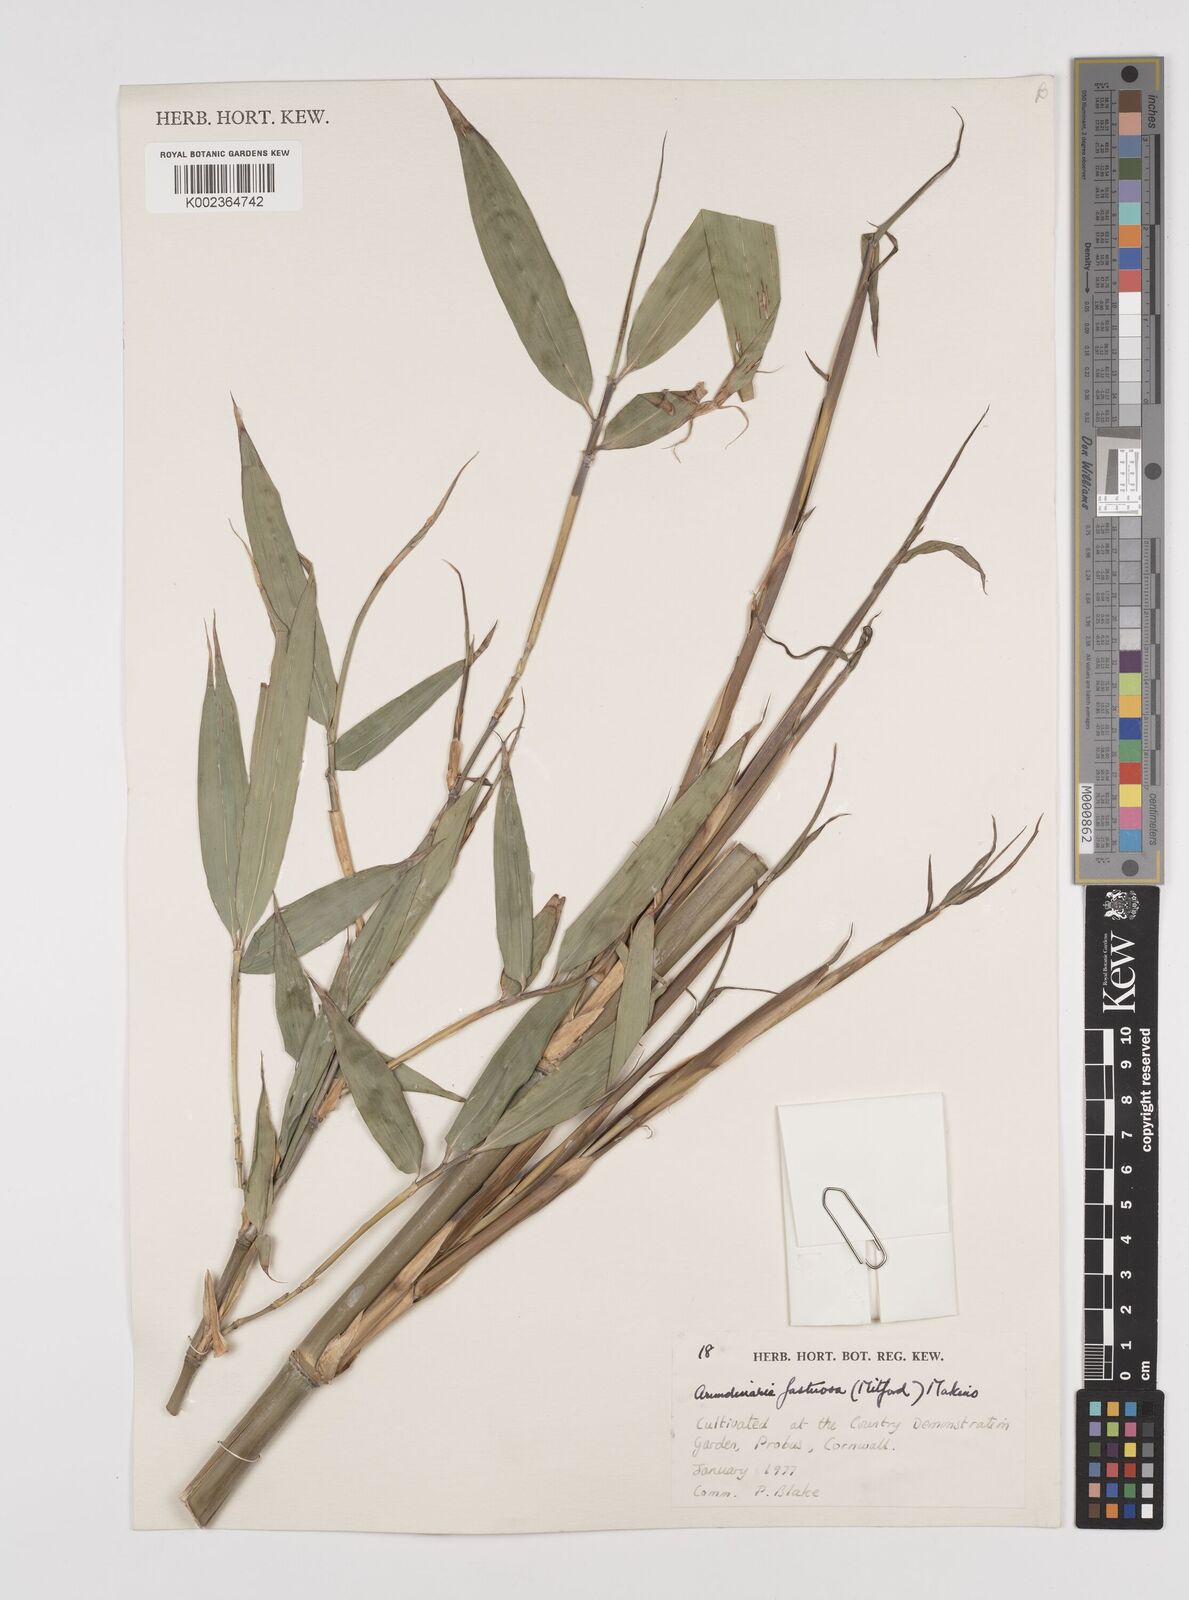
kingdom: Plantae
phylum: Tracheophyta
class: Liliopsida
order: Poales
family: Poaceae
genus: Semiarundinaria
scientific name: Semiarundinaria fastuosa
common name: Narihira bamboo
